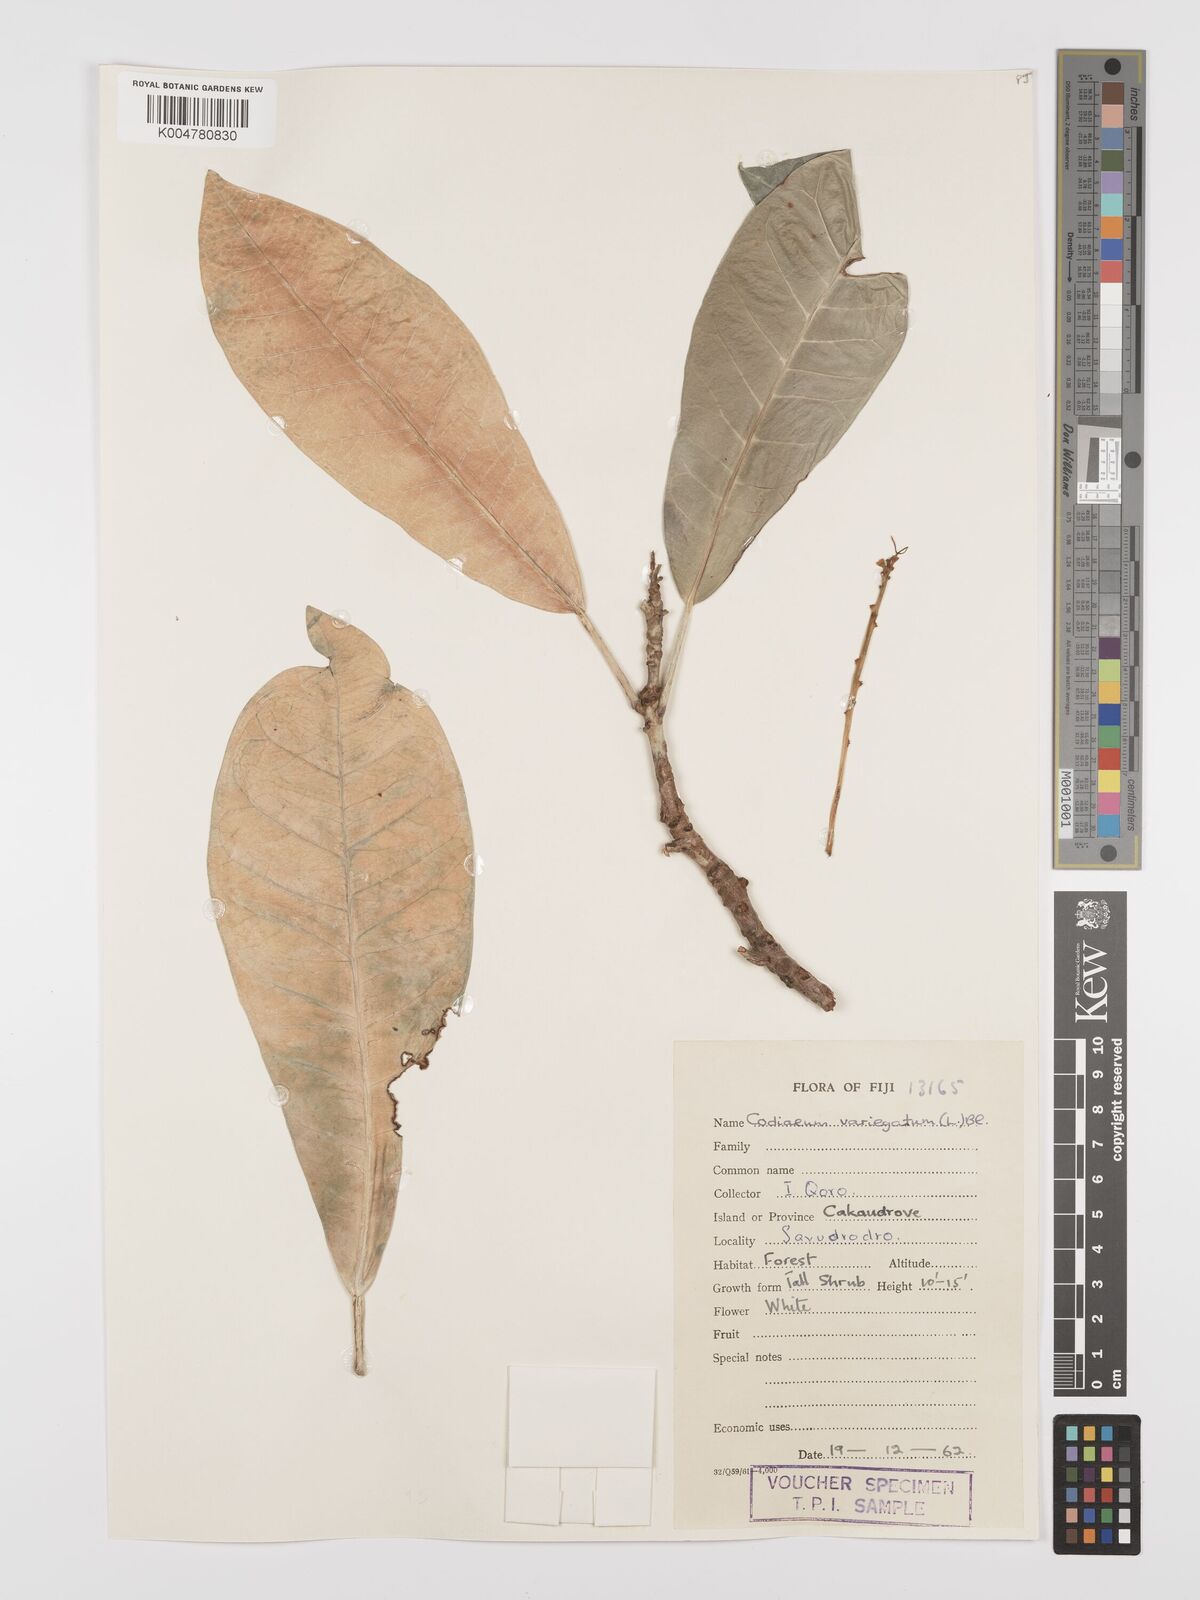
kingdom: Plantae
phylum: Tracheophyta
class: Magnoliopsida
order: Malpighiales
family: Euphorbiaceae
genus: Codiaeum
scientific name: Codiaeum variegatum
